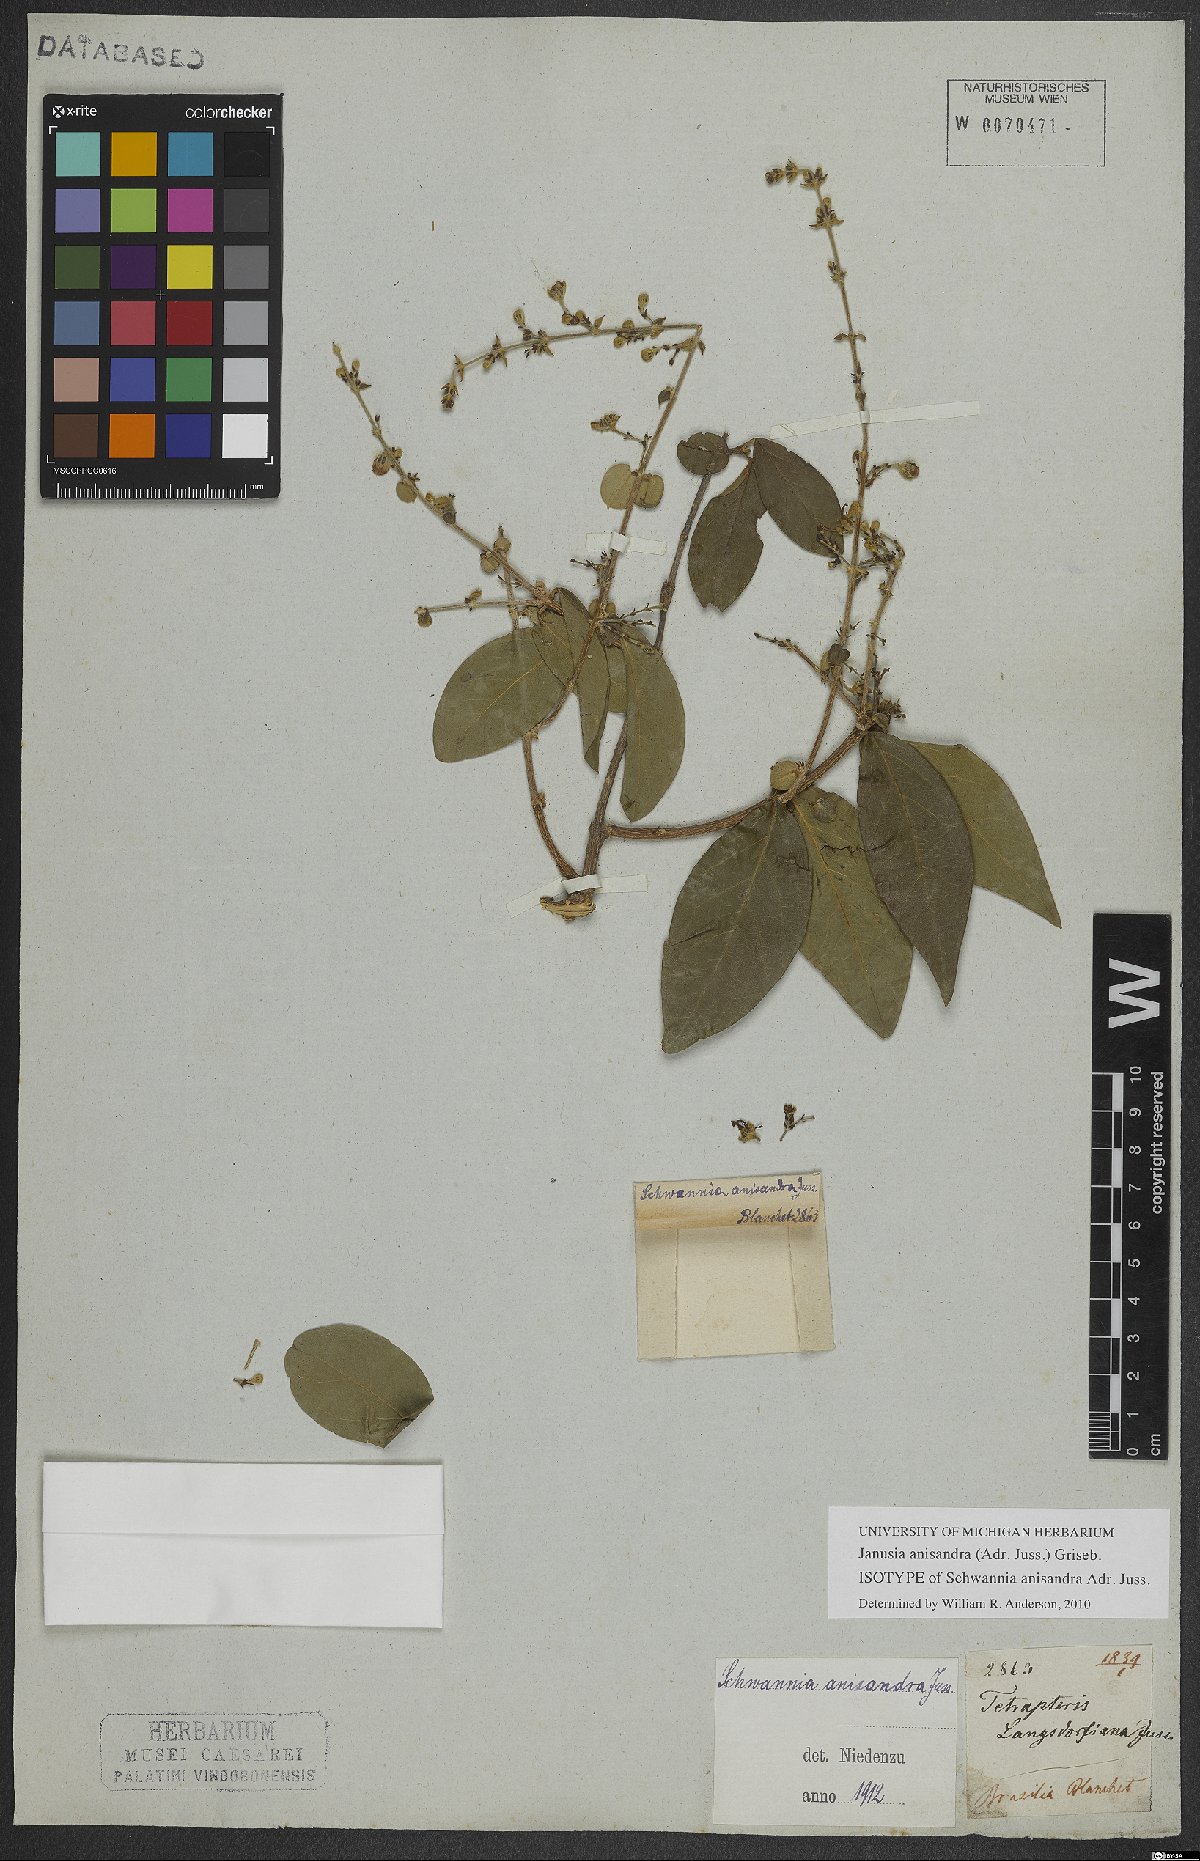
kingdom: Plantae
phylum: Tracheophyta
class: Magnoliopsida
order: Malpighiales
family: Malpighiaceae
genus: Janusia
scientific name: Janusia anisandra
